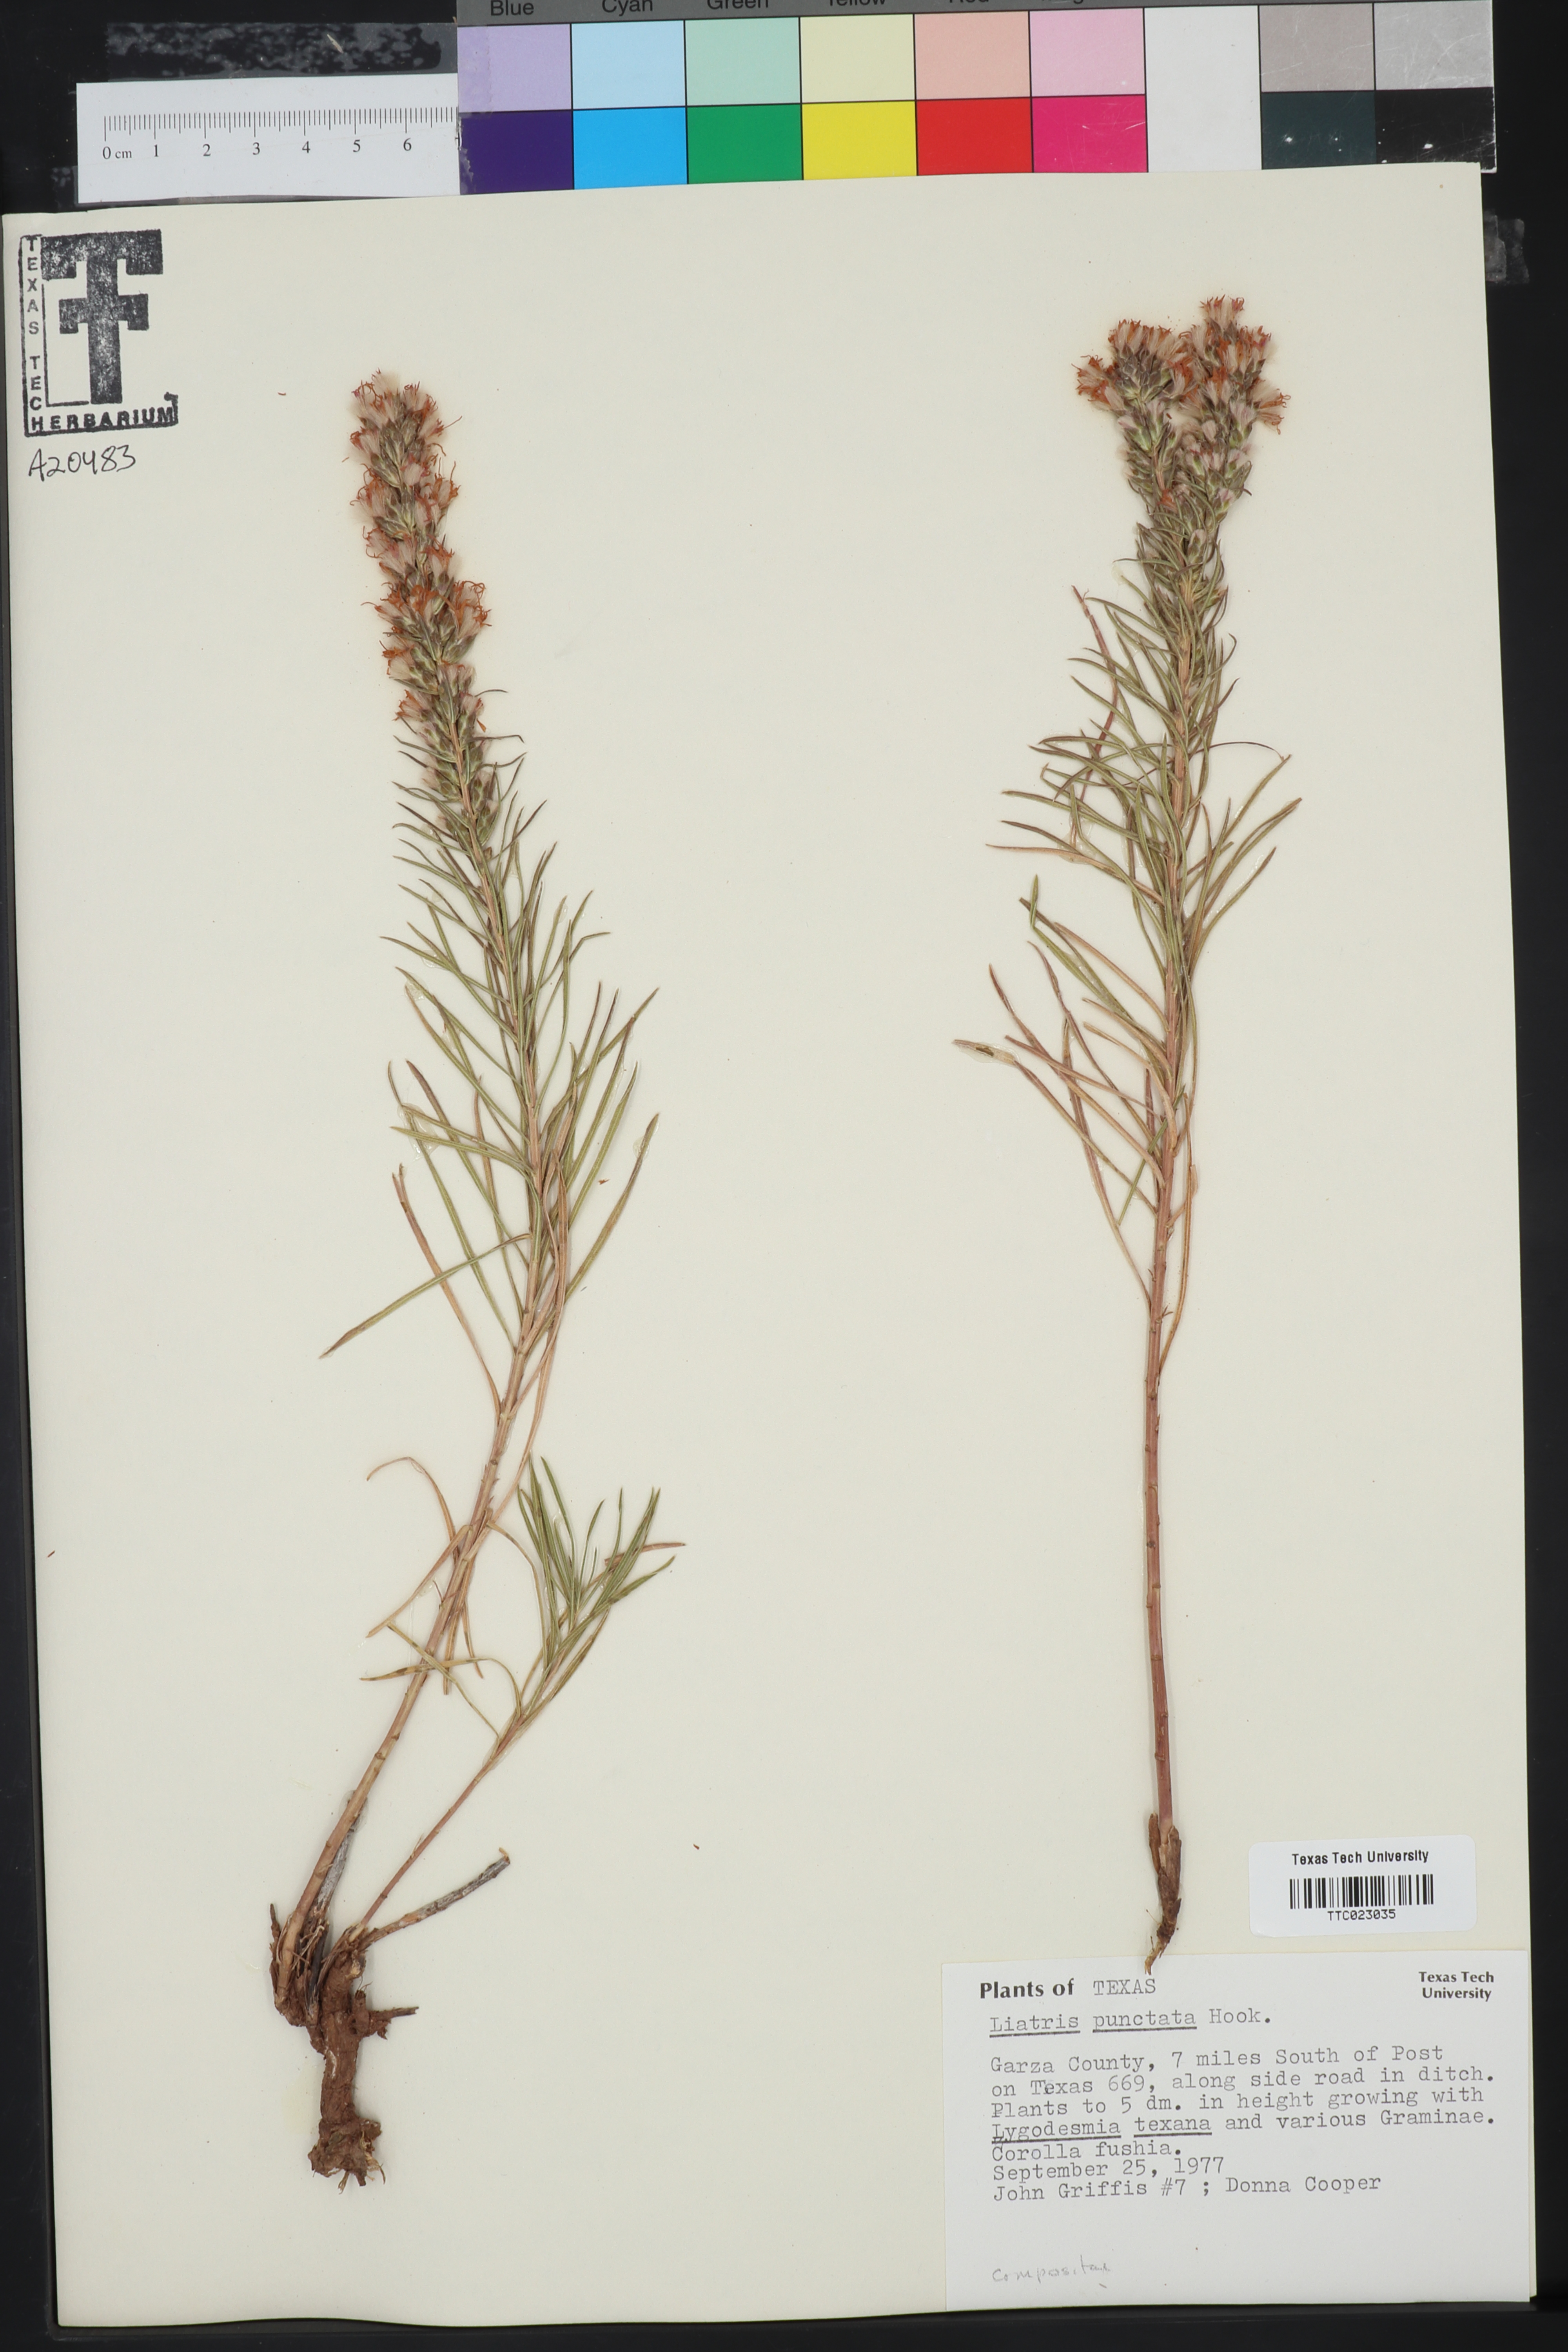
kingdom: Plantae
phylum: Tracheophyta
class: Magnoliopsida
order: Asterales
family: Asteraceae
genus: Liatris
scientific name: Liatris punctata
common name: Dotted gayfeather
